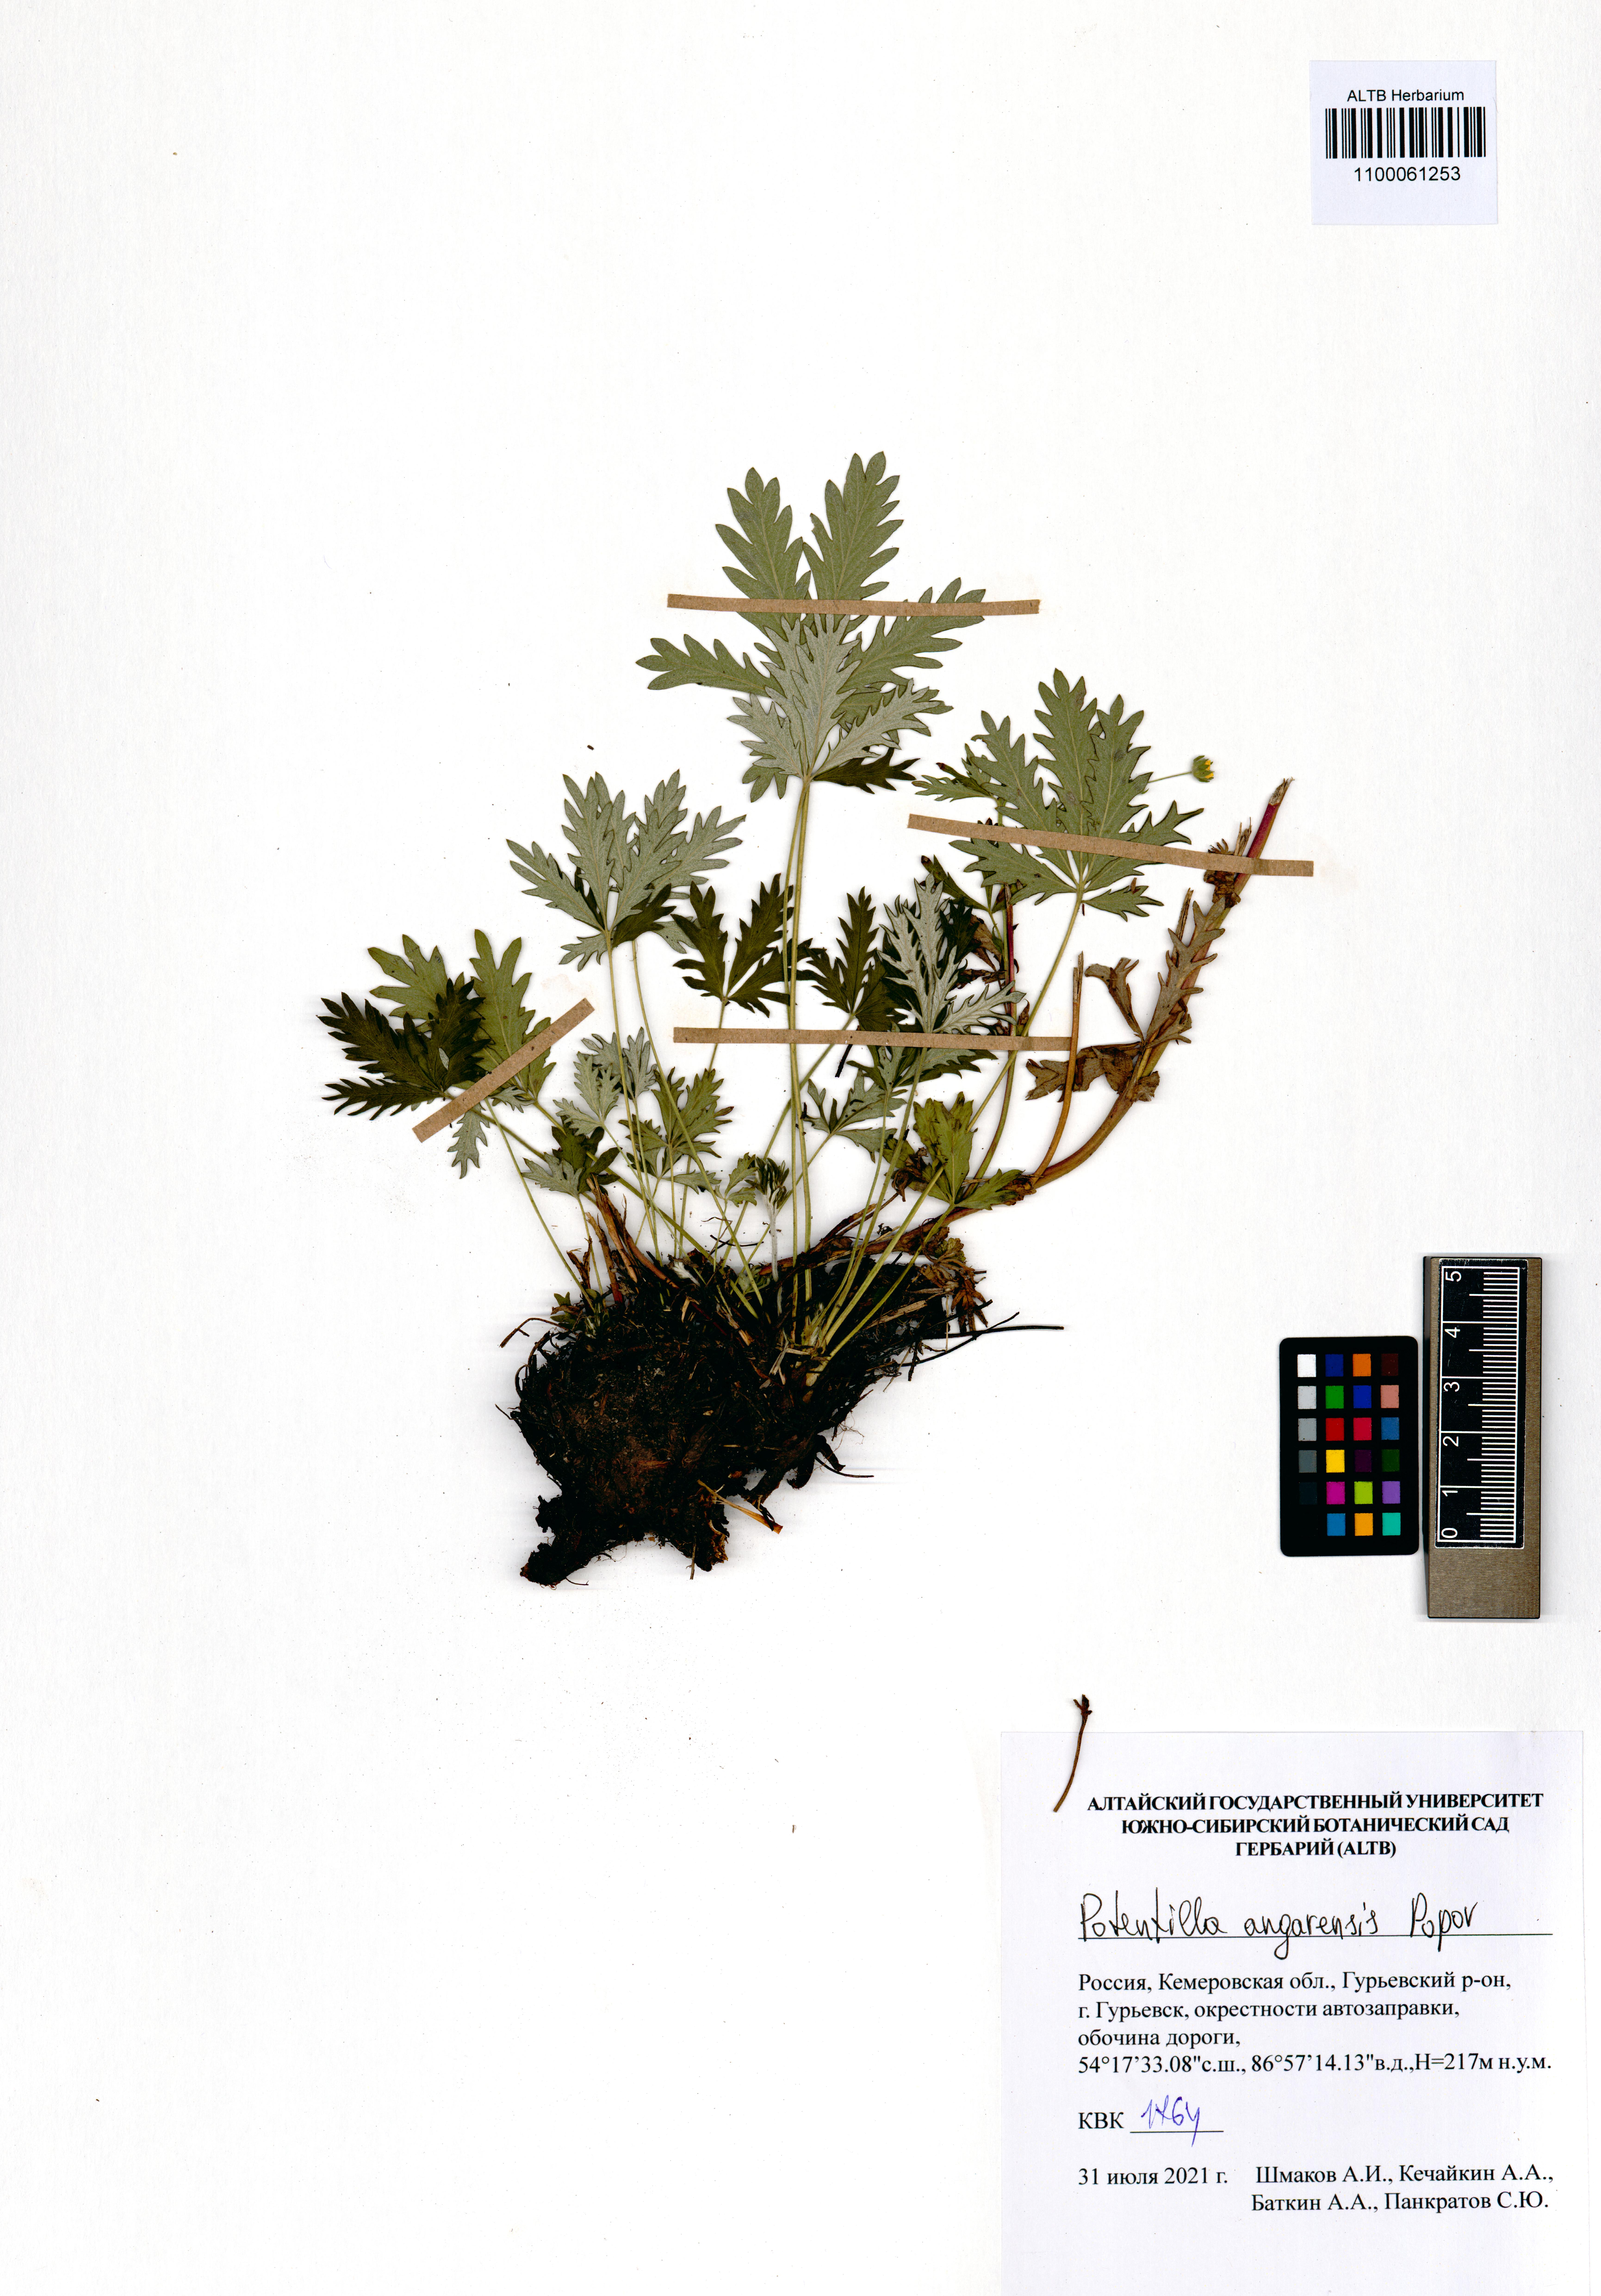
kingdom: Plantae
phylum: Tracheophyta
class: Magnoliopsida
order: Rosales
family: Rosaceae
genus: Potentilla
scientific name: Potentilla angarensis
